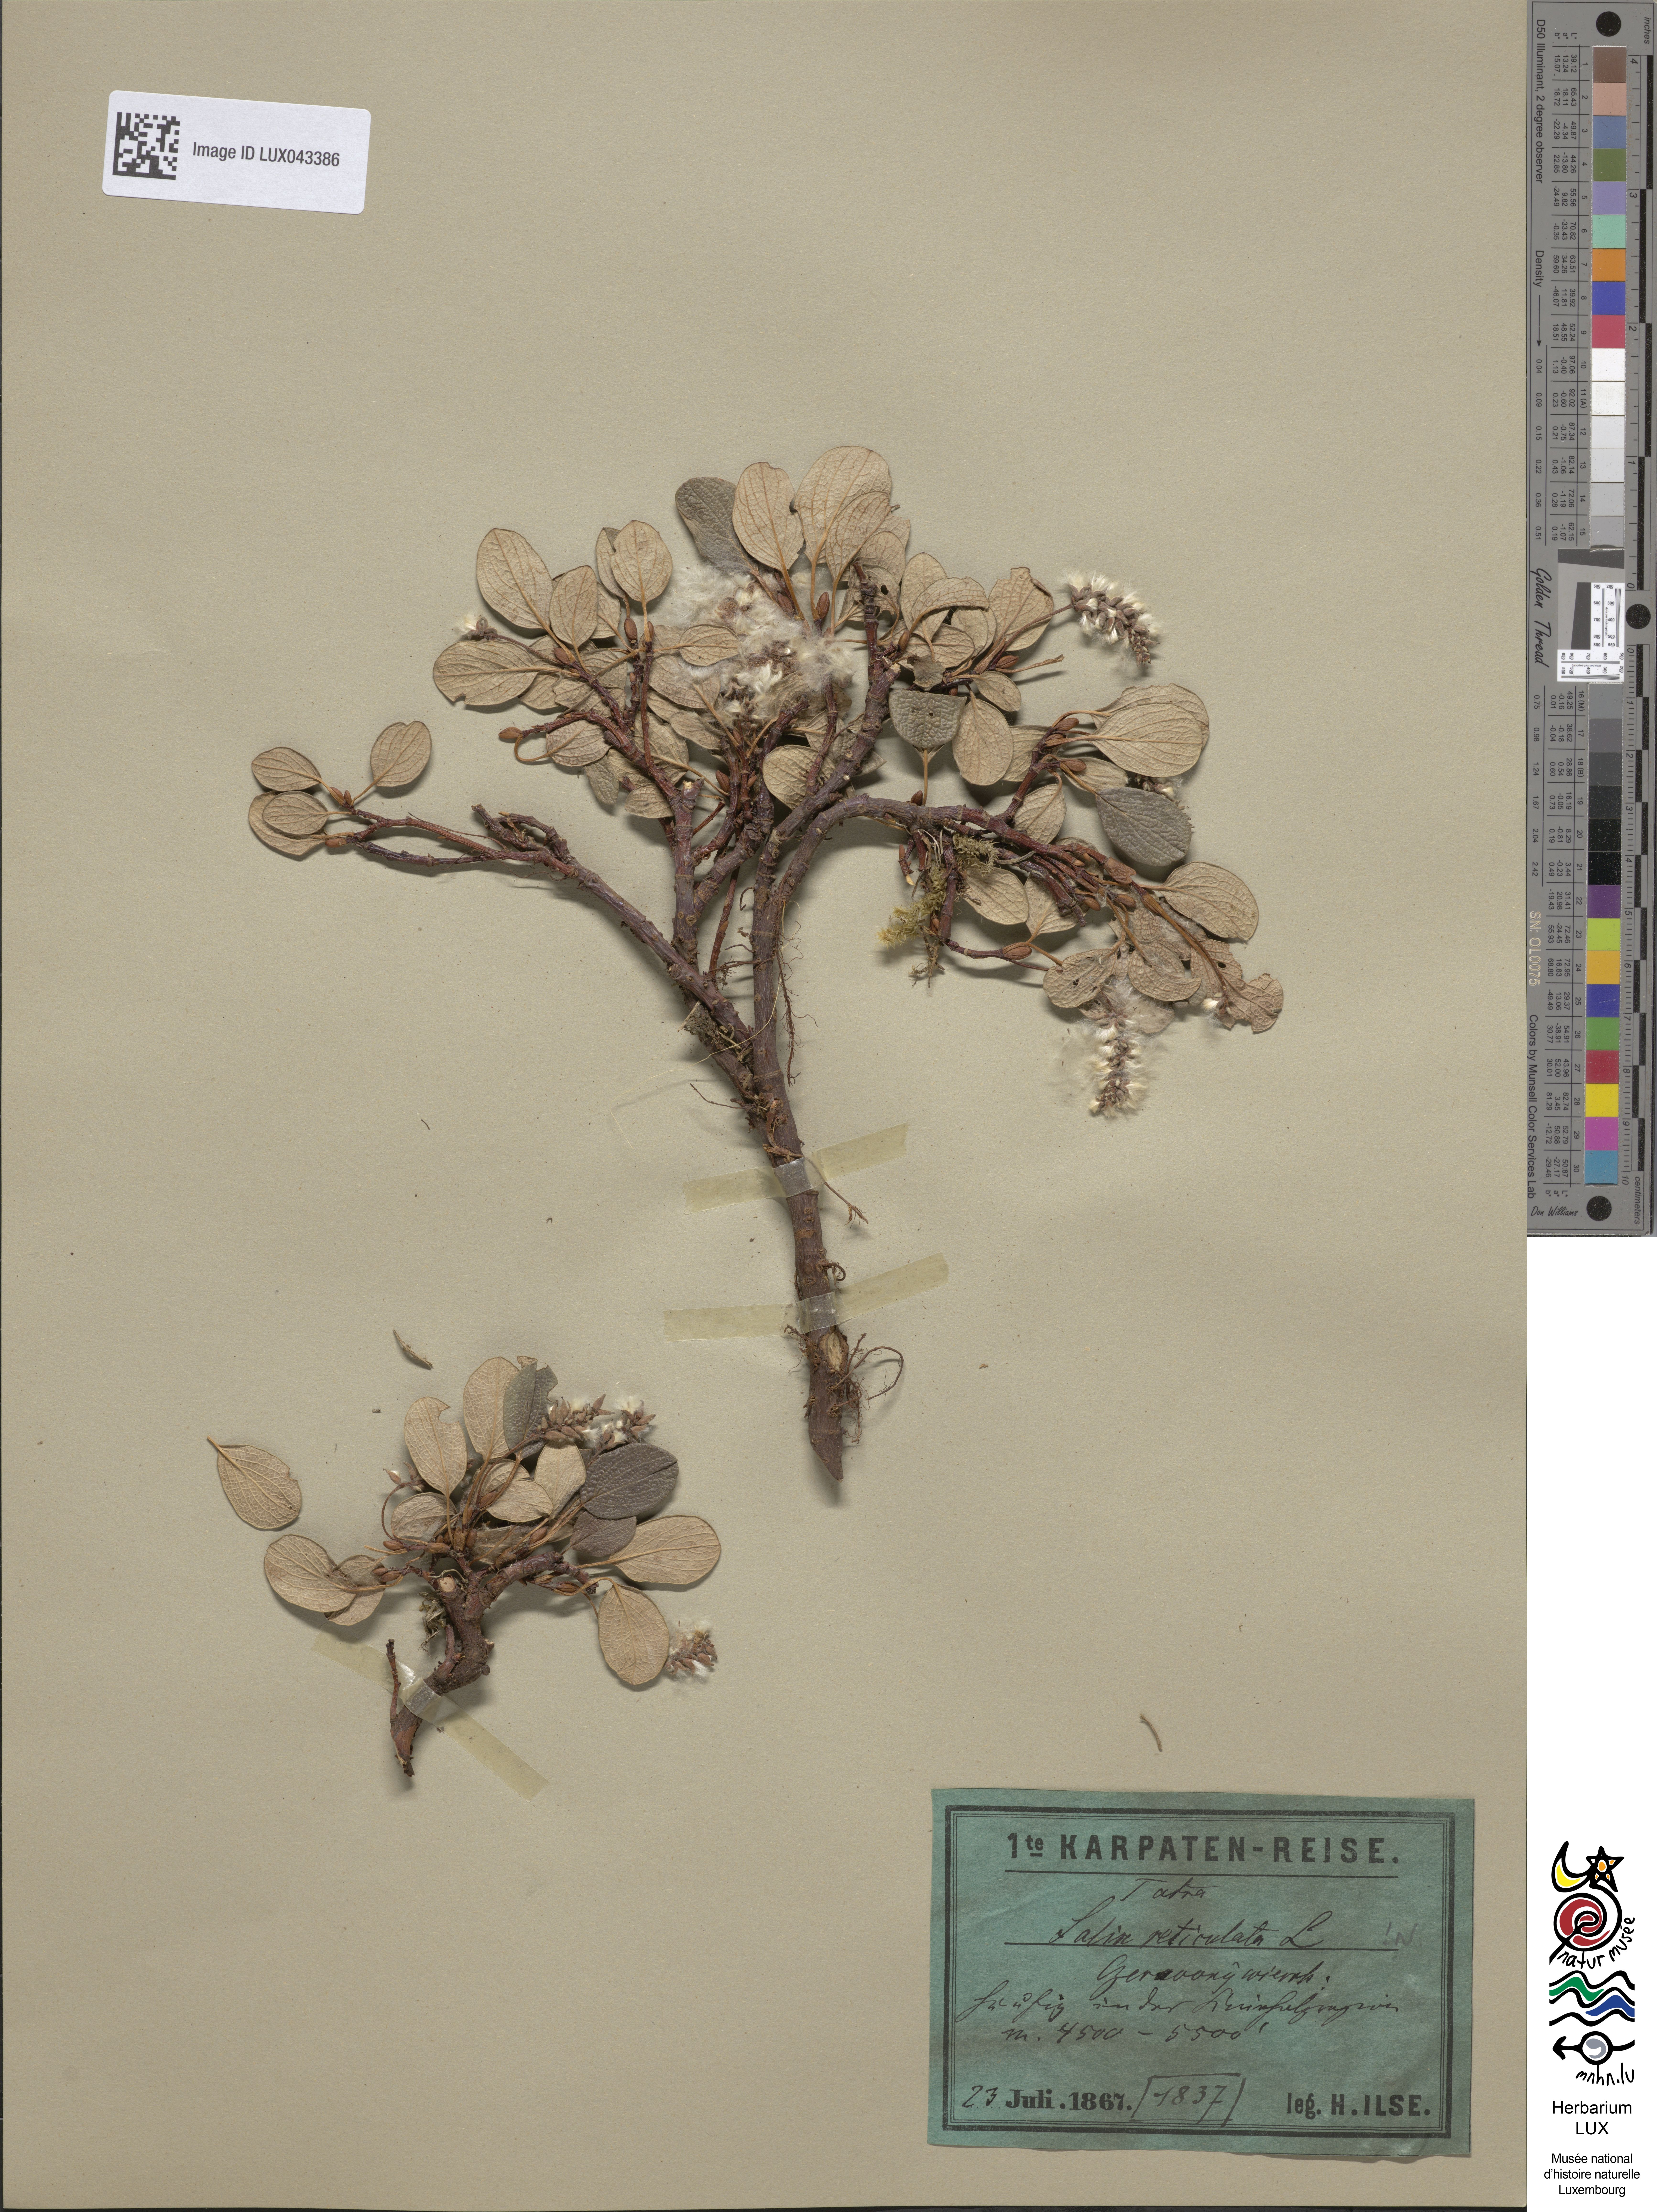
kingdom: Plantae
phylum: Tracheophyta
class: Magnoliopsida
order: Malpighiales
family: Salicaceae
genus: Salix
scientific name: Salix reticulata
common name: Net-leaved willow
